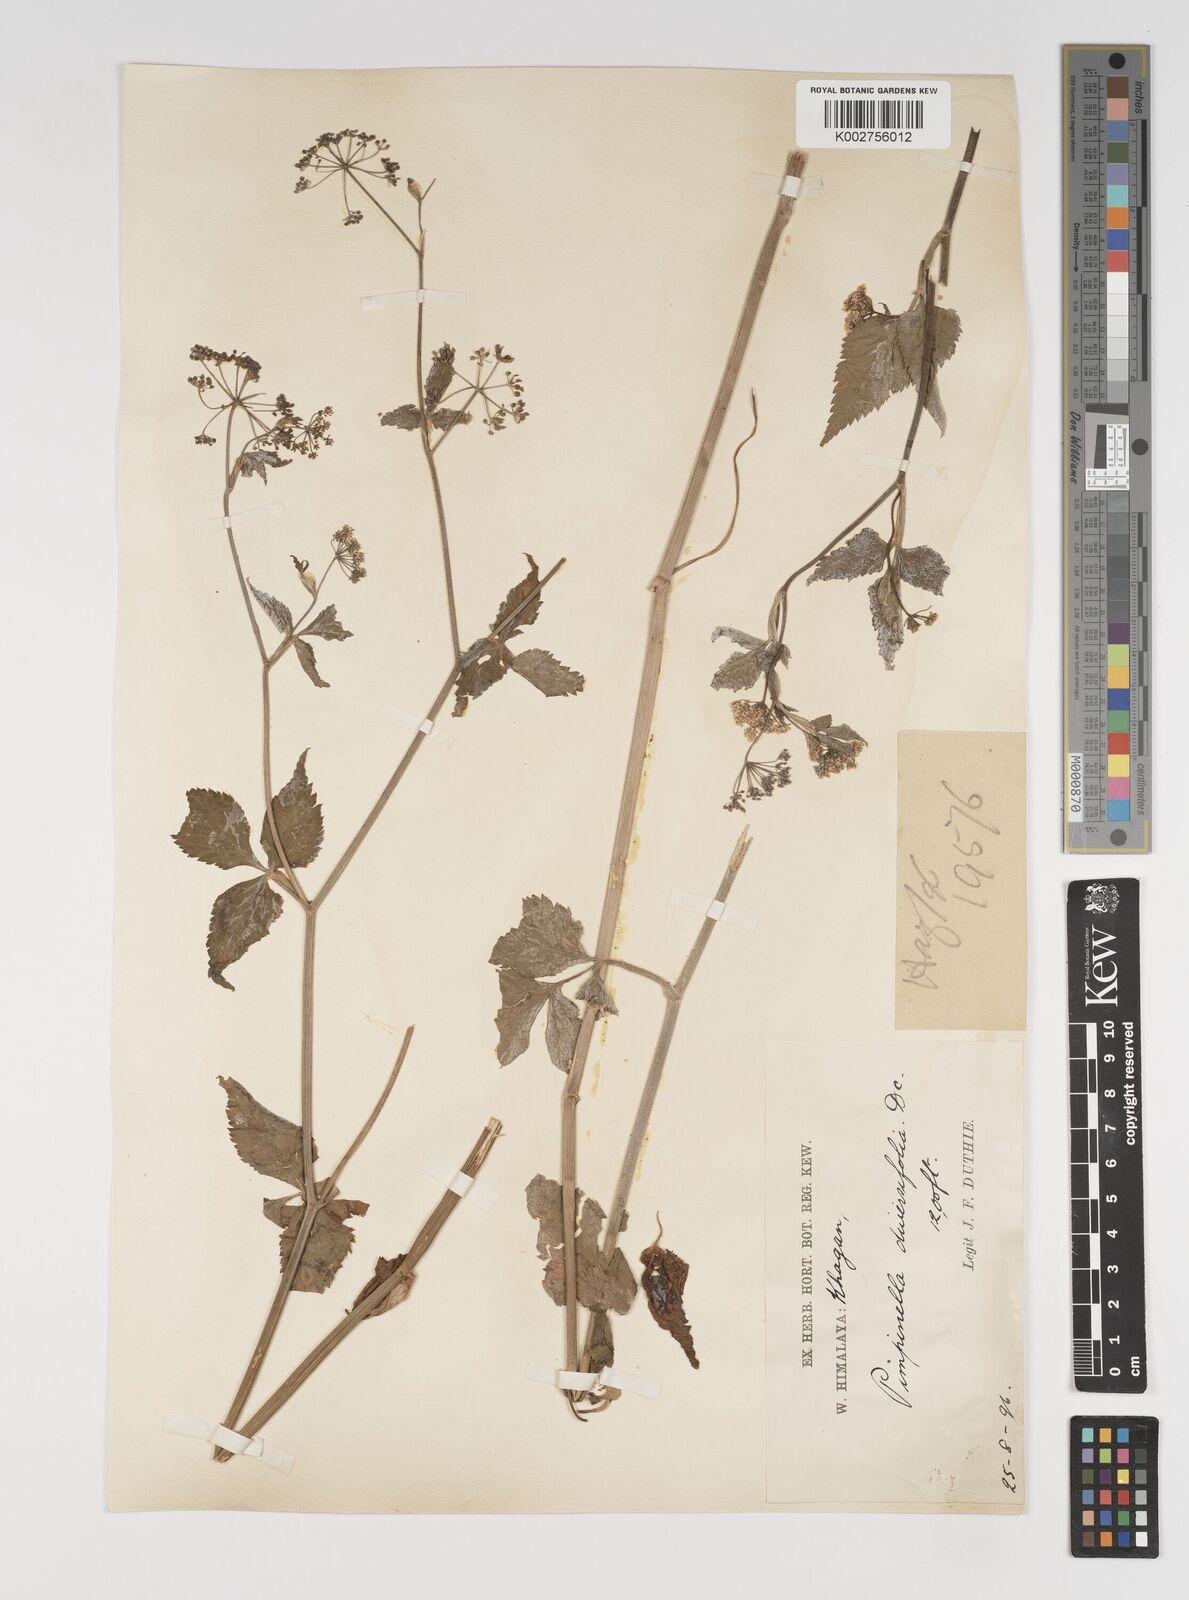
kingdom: Plantae
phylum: Tracheophyta
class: Magnoliopsida
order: Apiales
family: Apiaceae
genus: Pimpinella
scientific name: Pimpinella diversifolia
